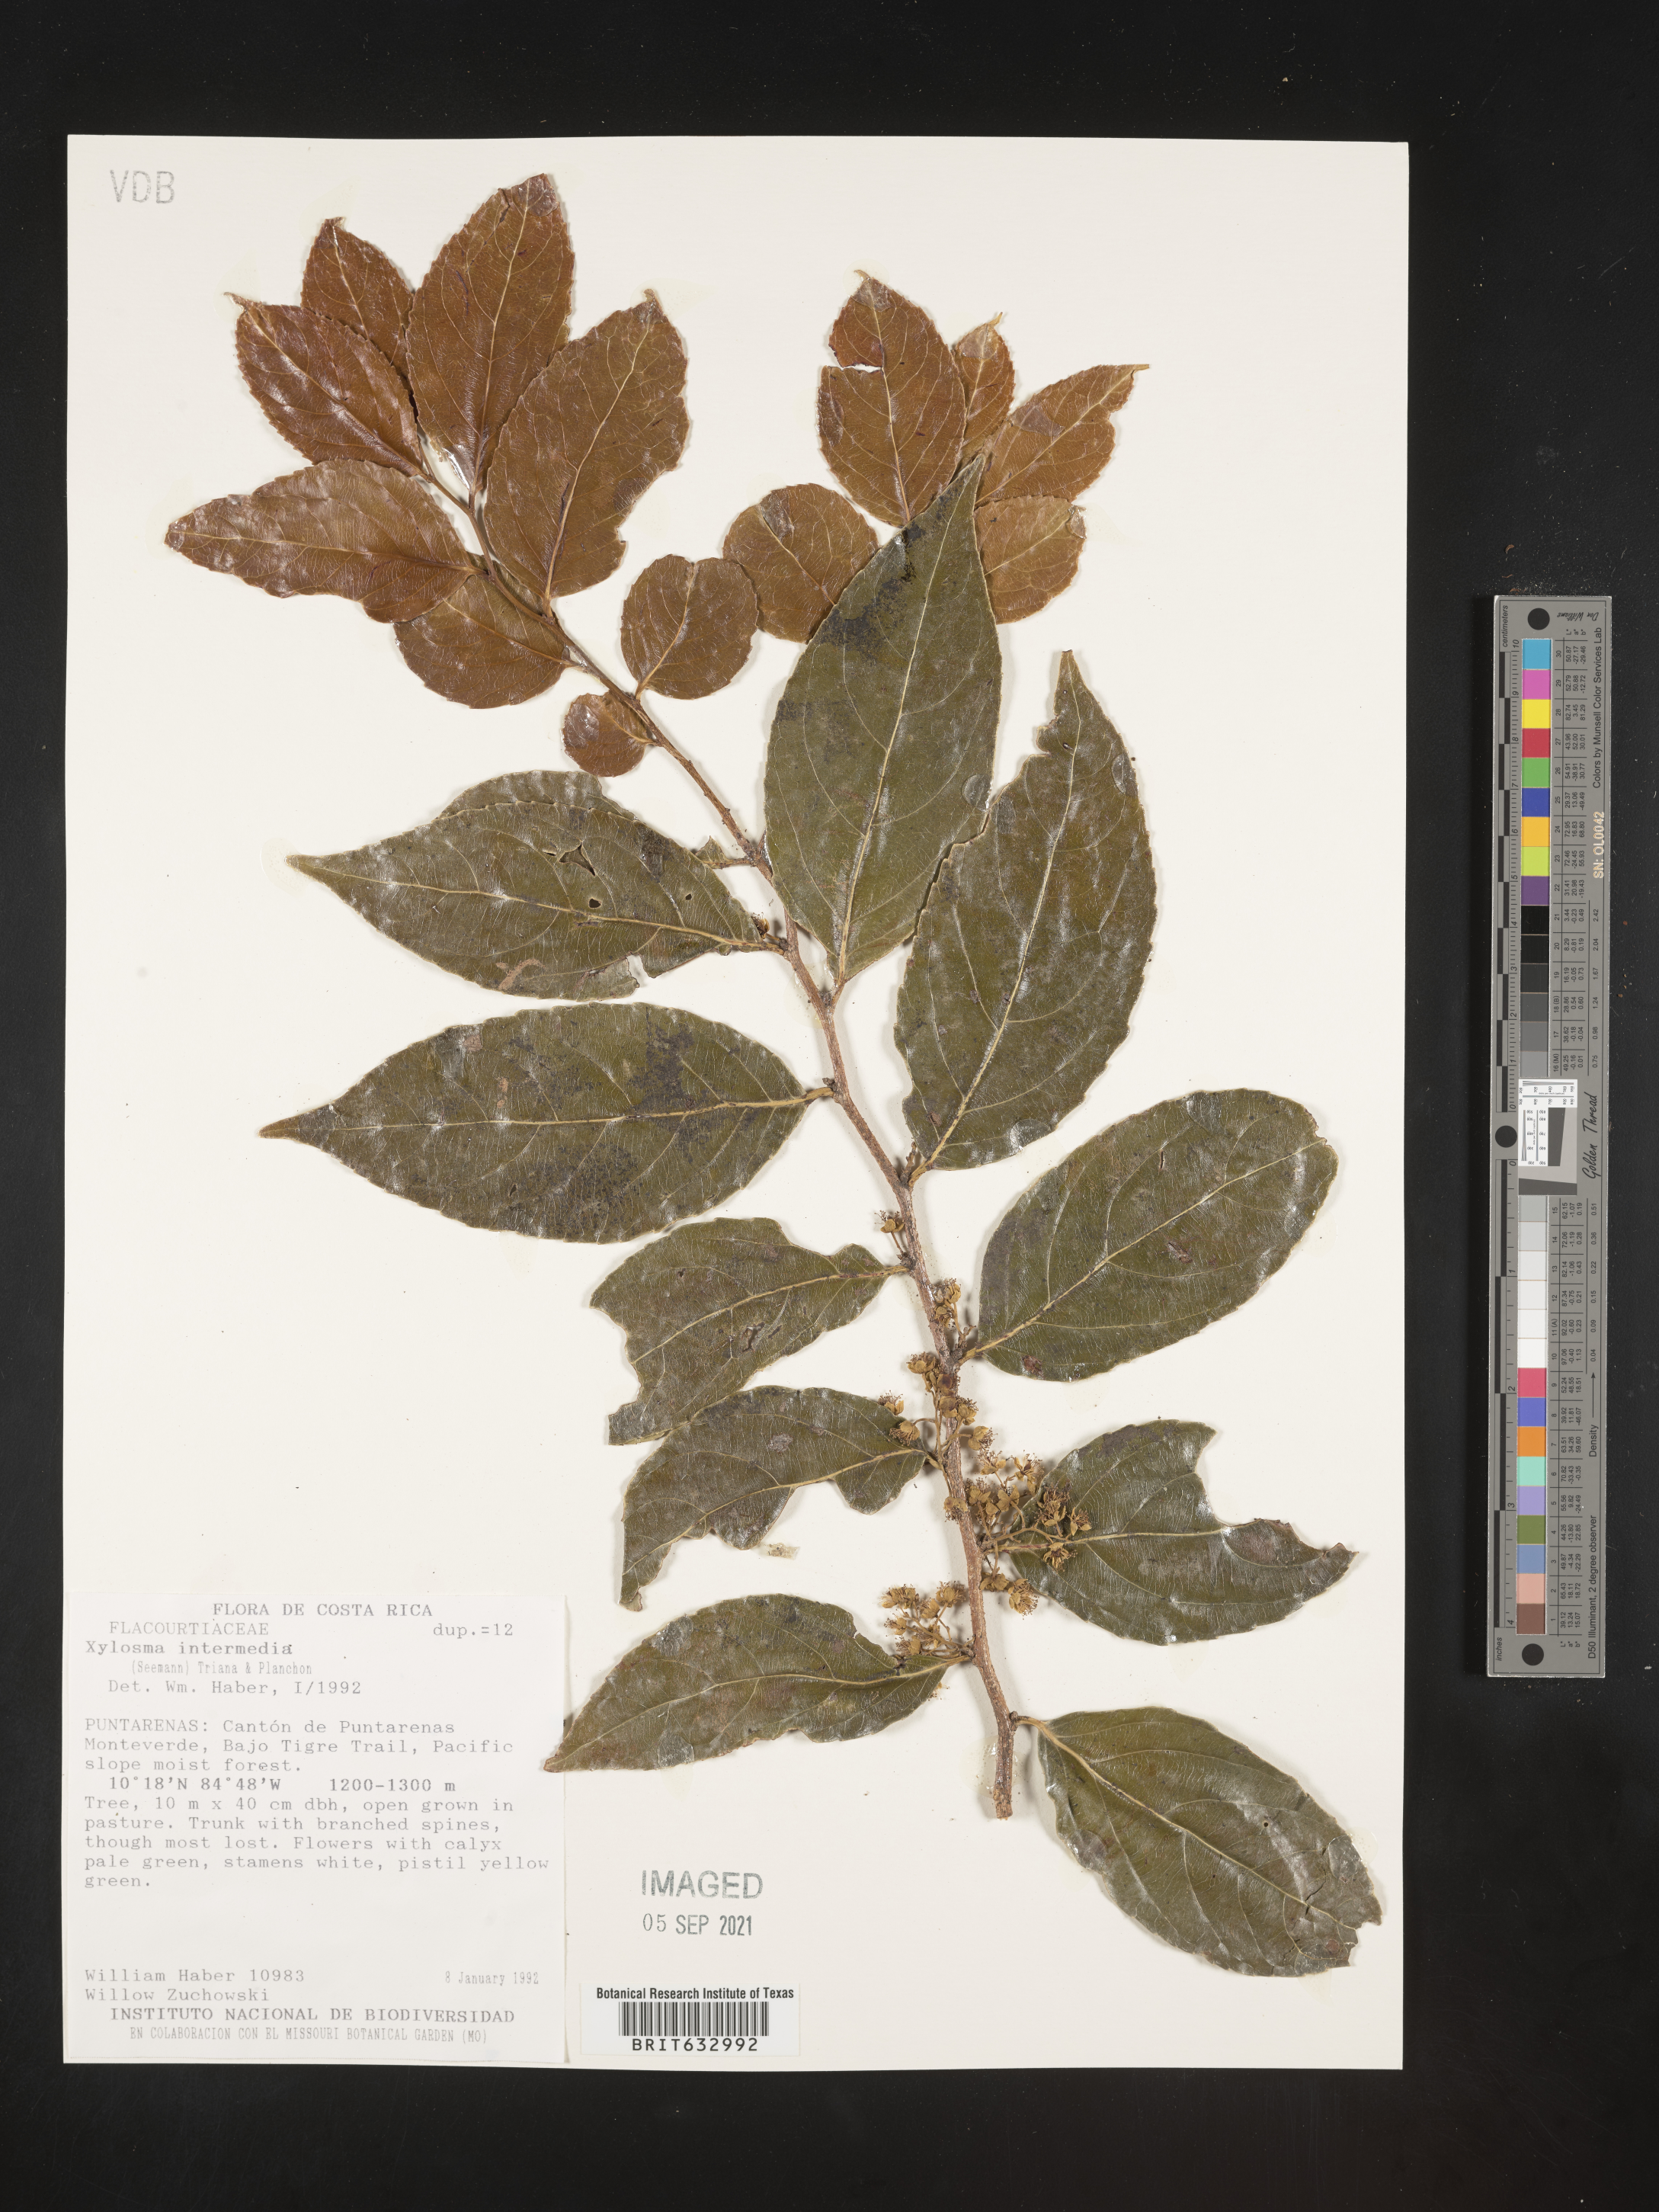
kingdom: Plantae
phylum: Tracheophyta
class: Magnoliopsida
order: Malpighiales
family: Salicaceae
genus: Xylosma
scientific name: Xylosma
